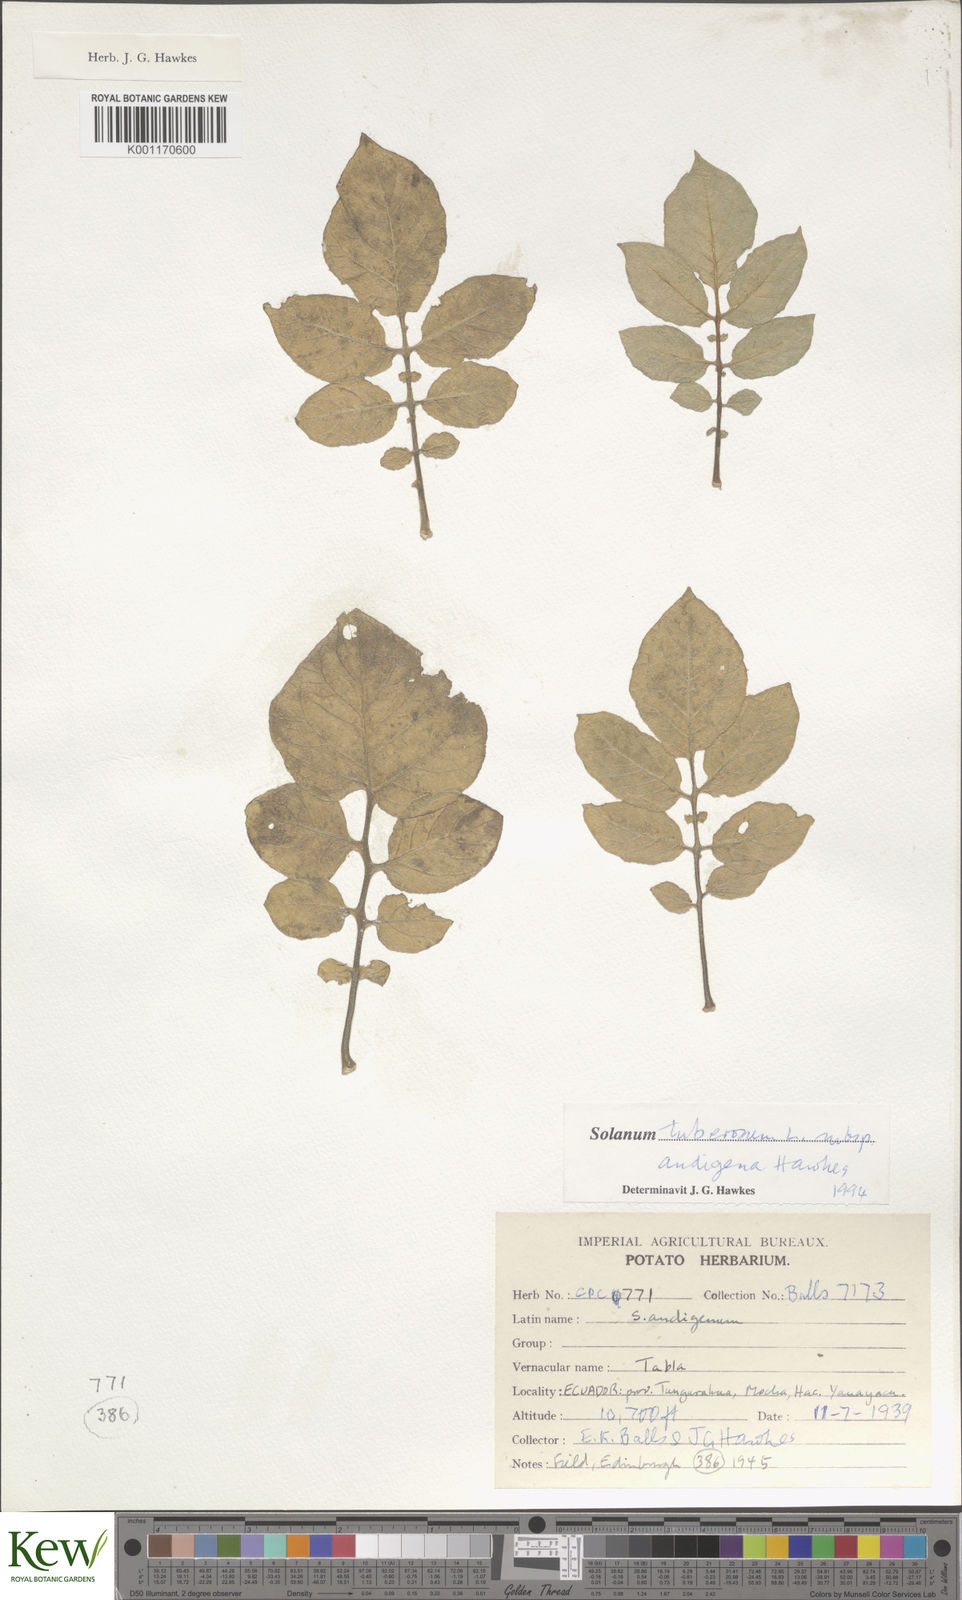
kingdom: Plantae
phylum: Tracheophyta
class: Magnoliopsida
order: Solanales
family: Solanaceae
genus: Solanum
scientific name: Solanum tuberosum
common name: Potato
